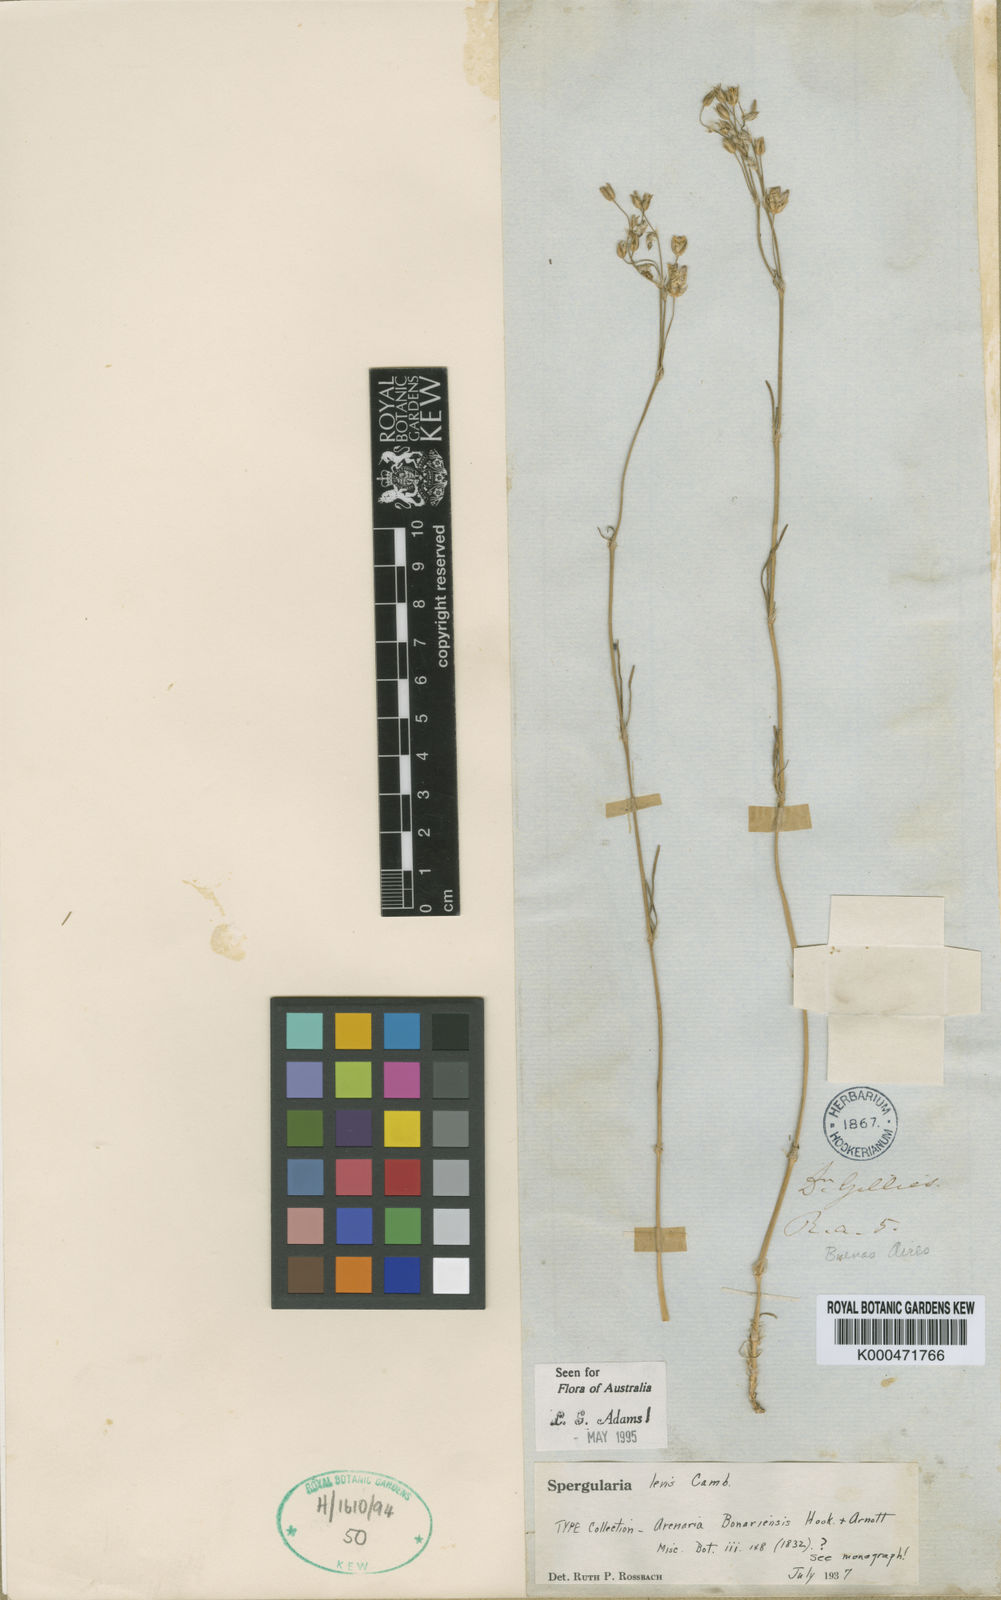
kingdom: Plantae
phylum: Tracheophyta
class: Magnoliopsida
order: Caryophyllales
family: Caryophyllaceae
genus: Spergularia
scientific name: Spergularia
